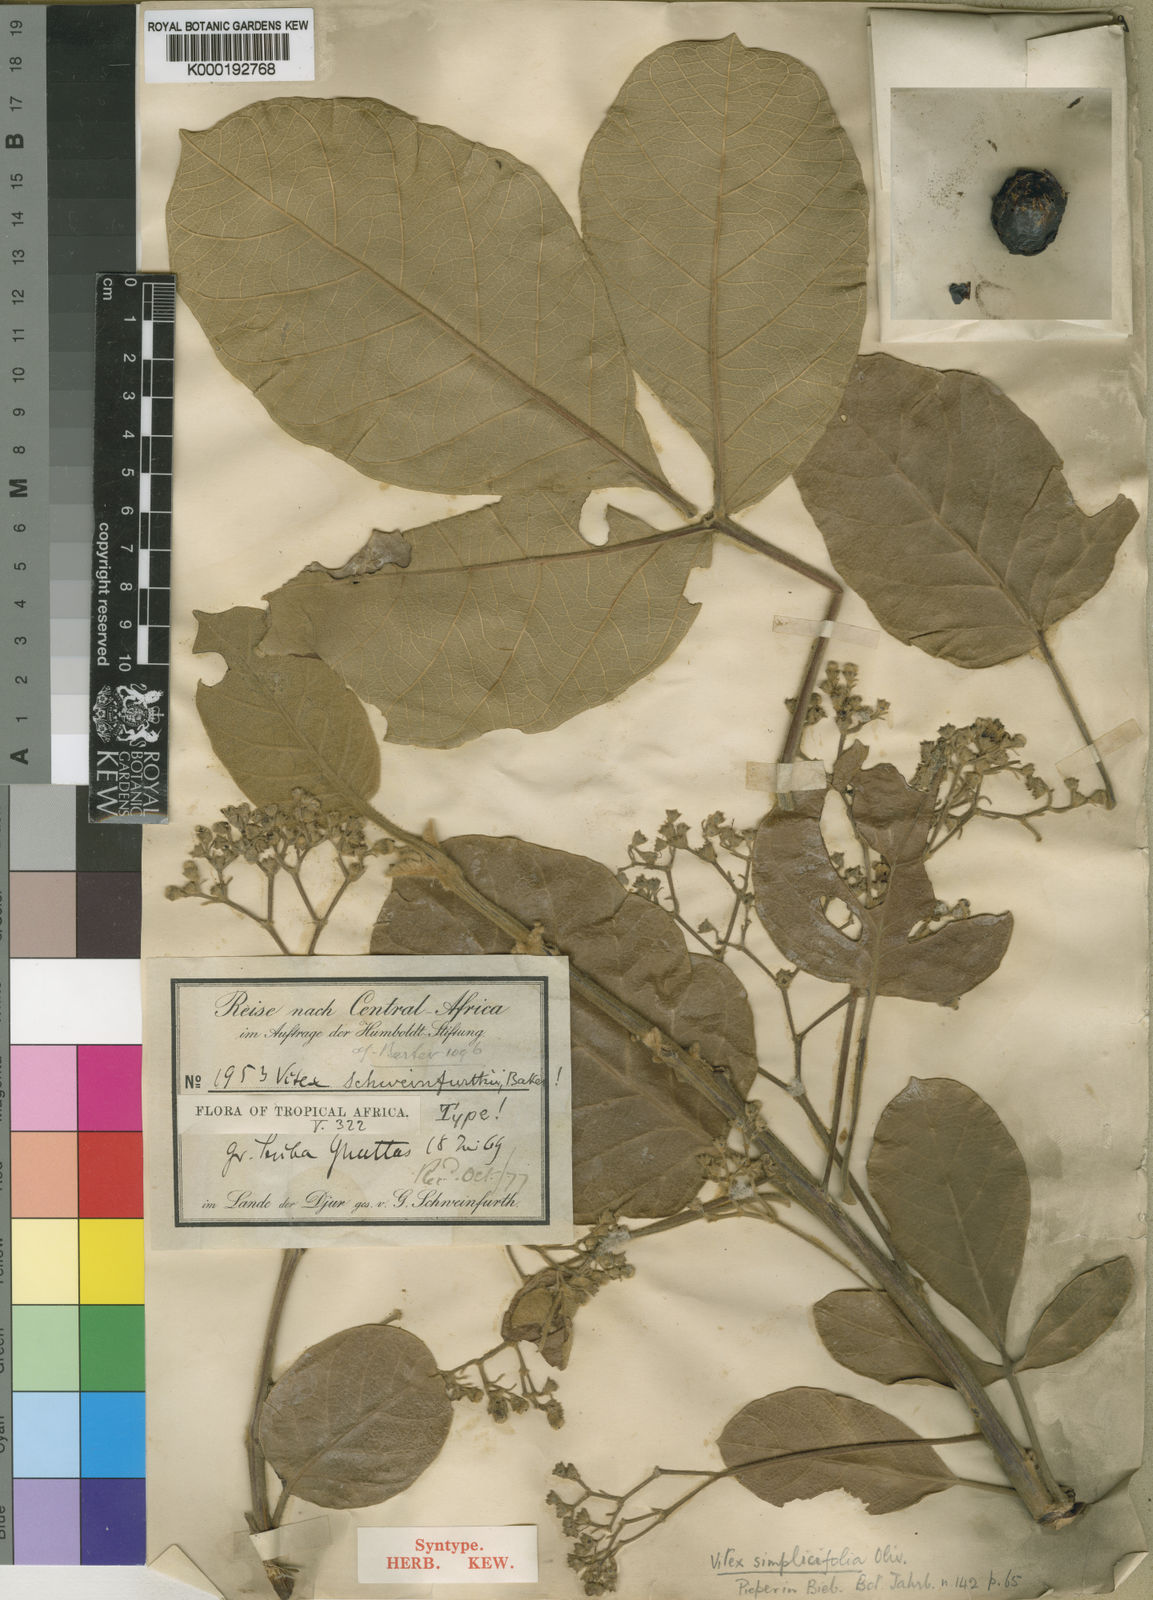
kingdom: Plantae
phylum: Tracheophyta
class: Magnoliopsida
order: Lamiales
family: Lamiaceae
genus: Vitex
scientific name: Vitex madiensis
